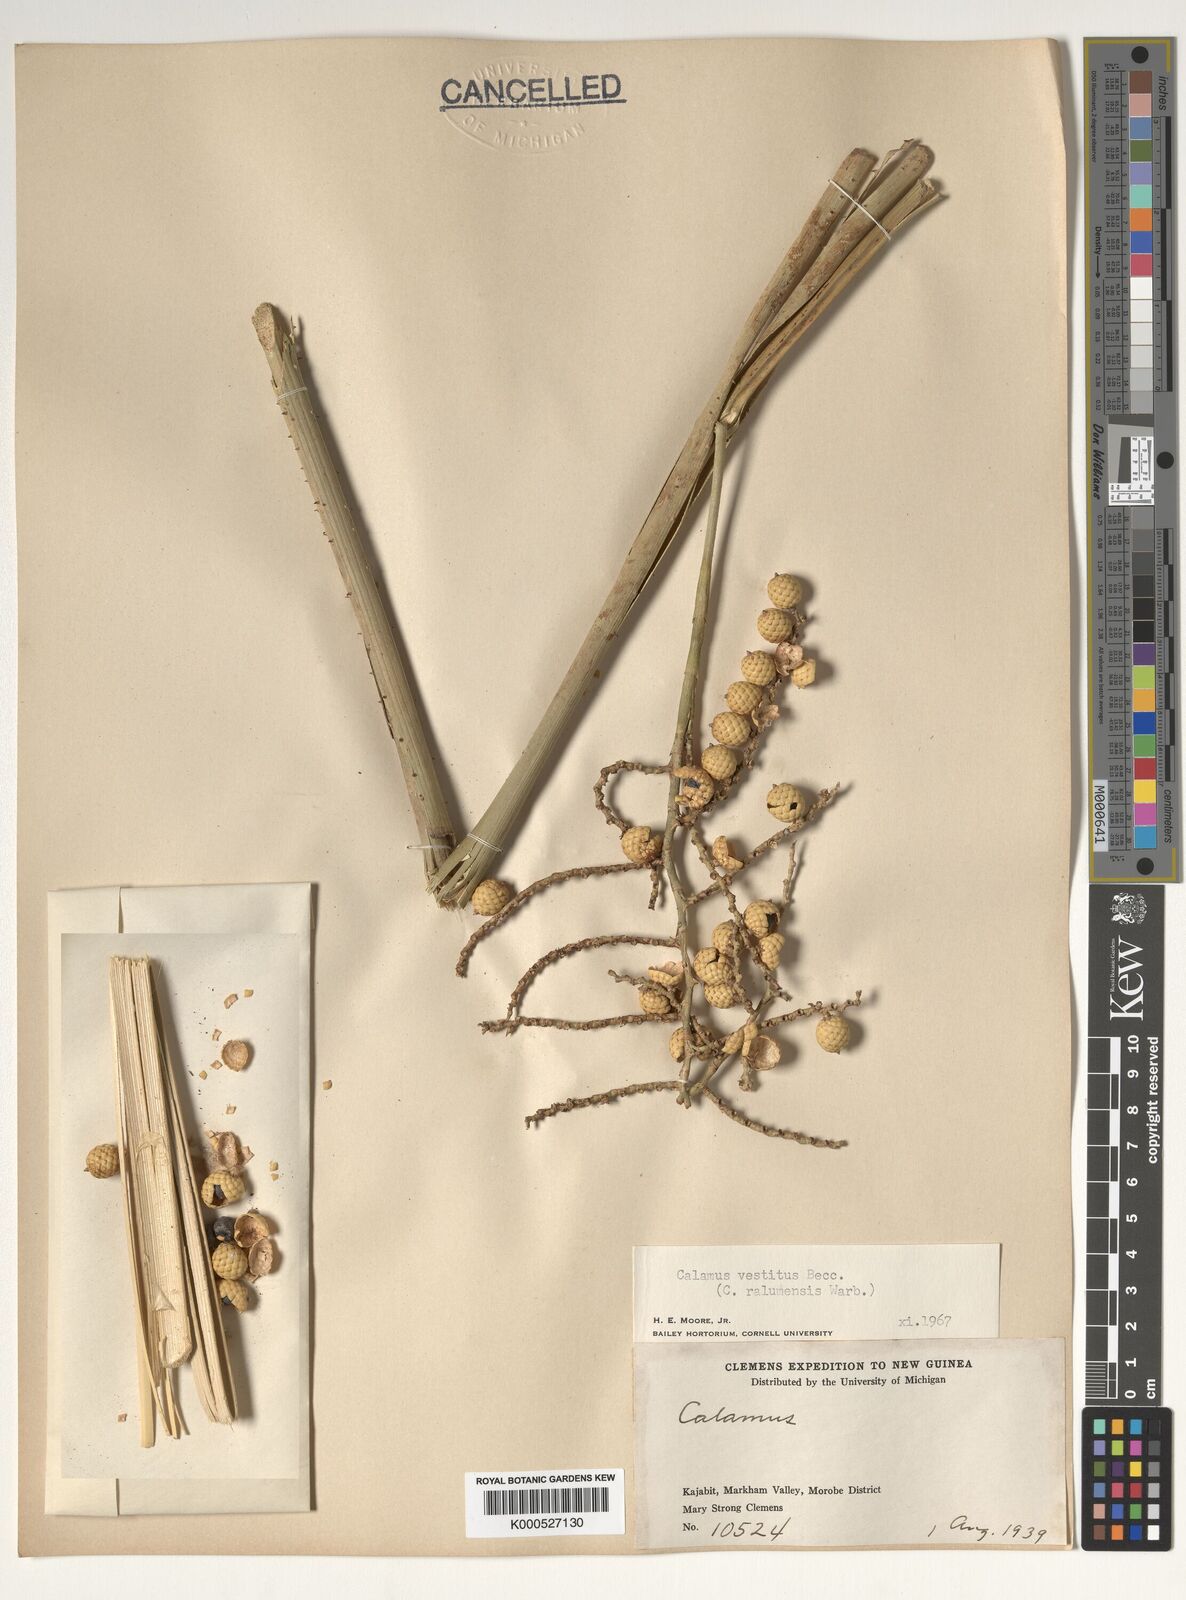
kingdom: Plantae
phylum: Tracheophyta
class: Liliopsida
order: Arecales
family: Arecaceae
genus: Calamus
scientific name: Calamus longipinna
